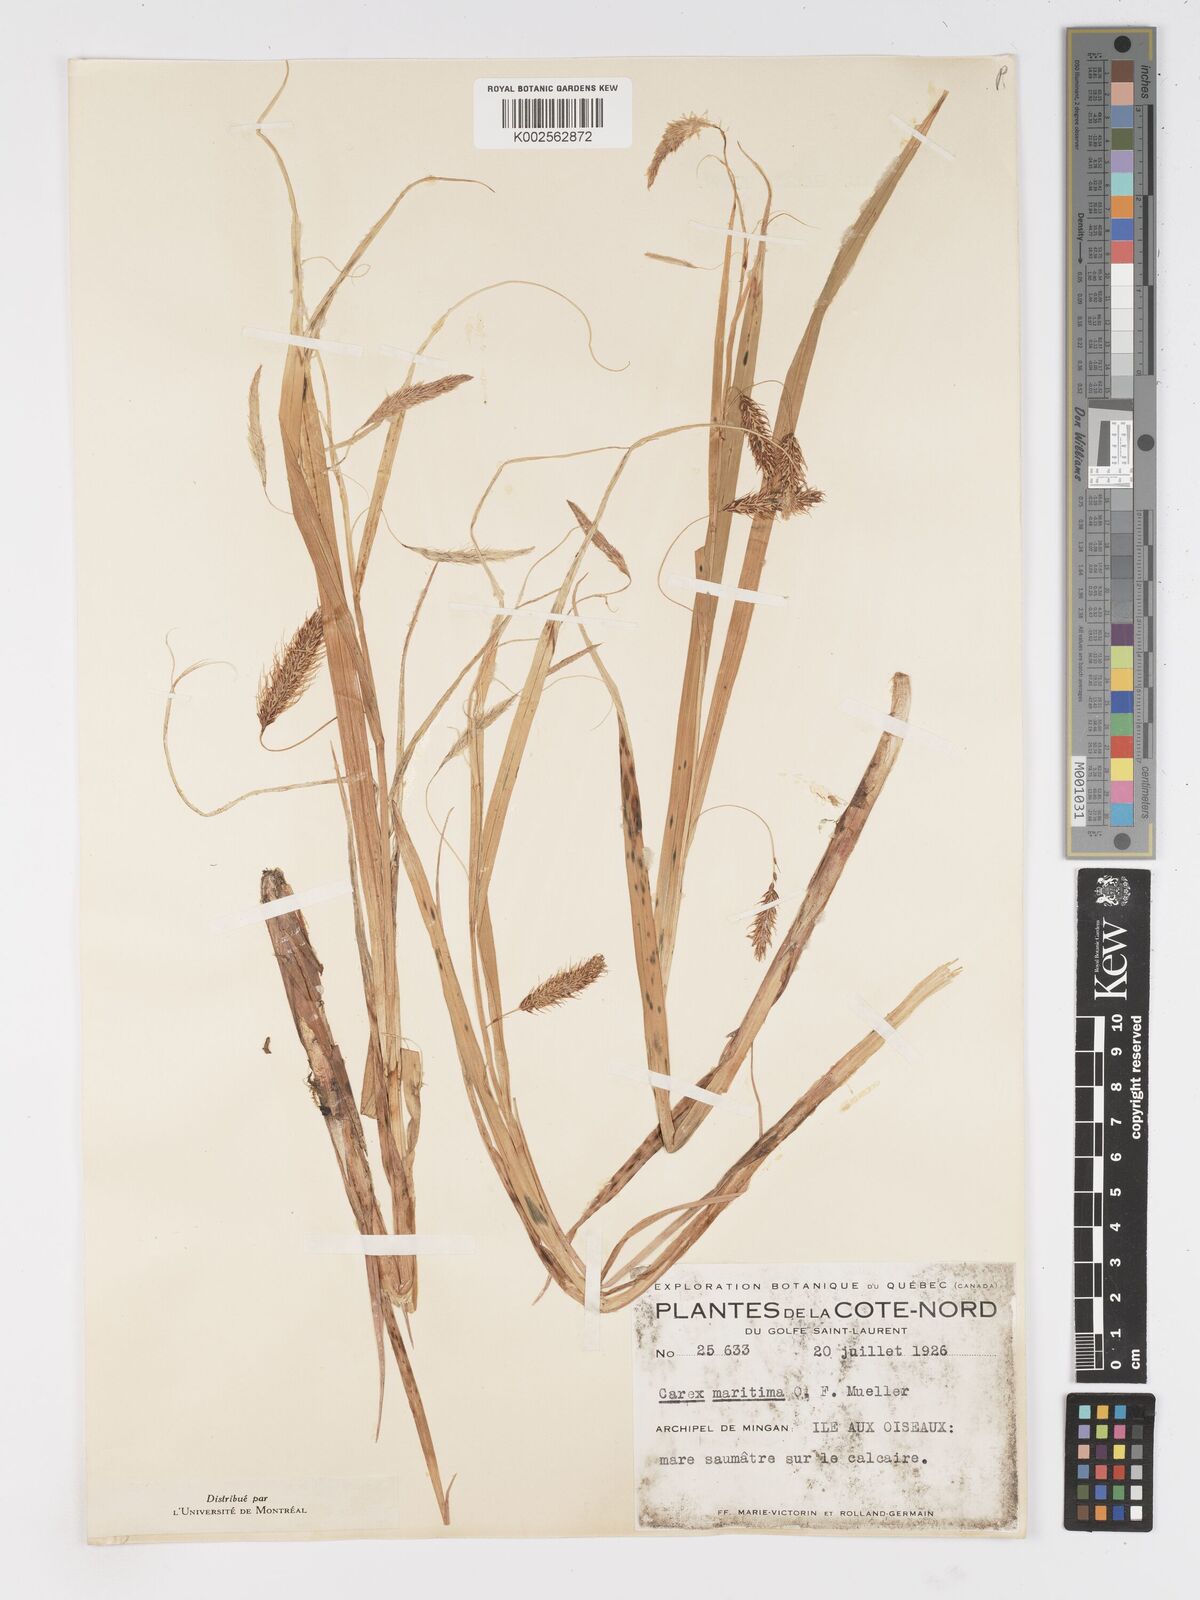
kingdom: Plantae
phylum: Tracheophyta
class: Liliopsida
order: Poales
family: Cyperaceae
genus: Carex
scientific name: Carex paleacea
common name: Chaffy sedge
